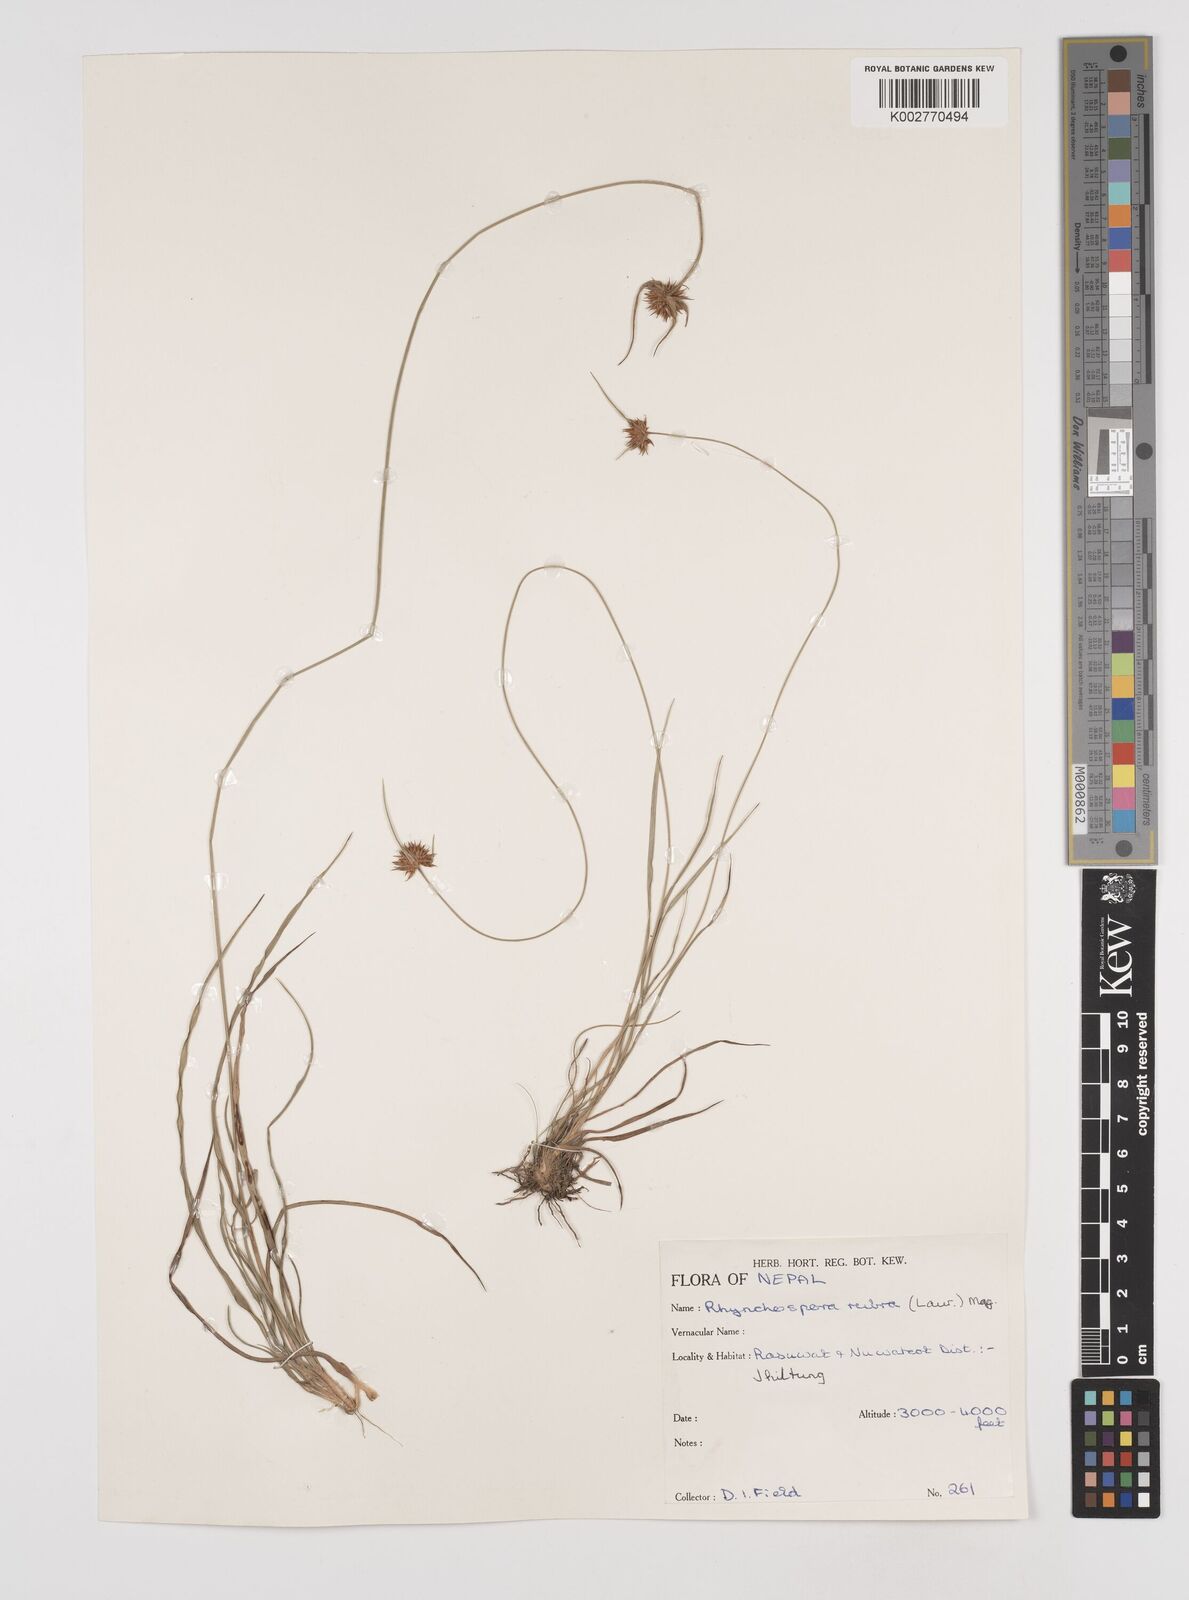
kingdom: Plantae
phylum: Tracheophyta
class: Liliopsida
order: Poales
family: Cyperaceae
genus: Rhynchospora
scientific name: Rhynchospora rubra
